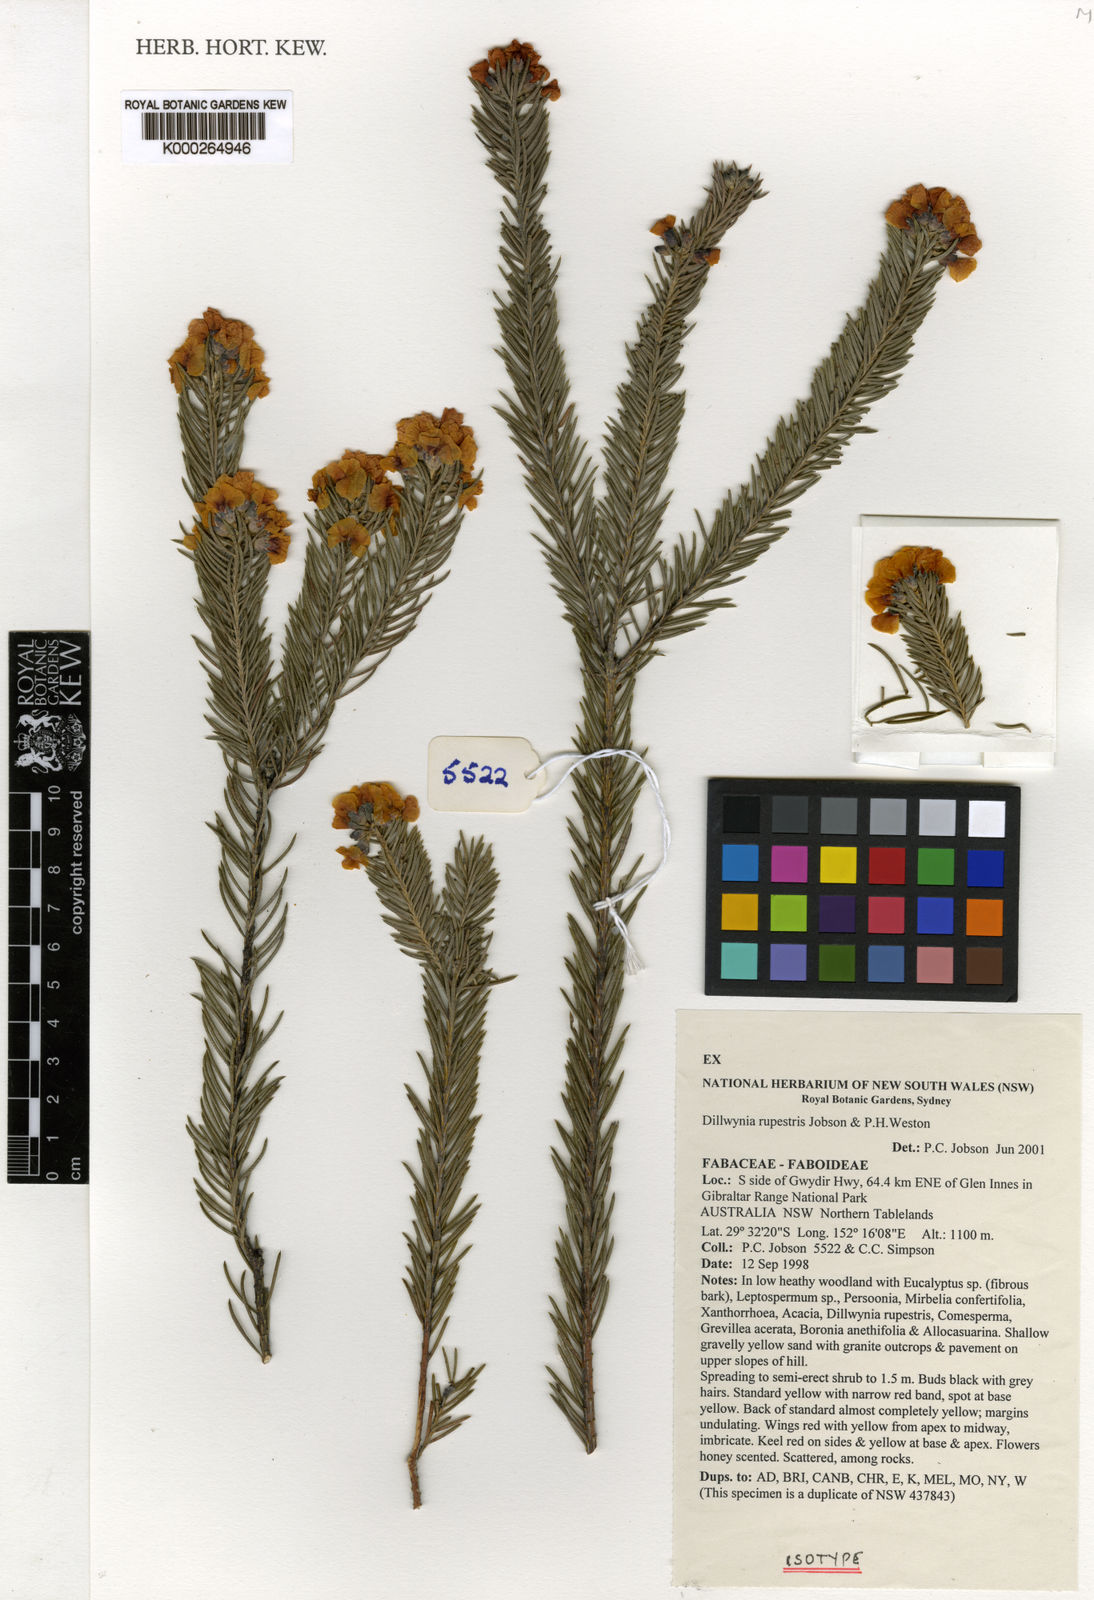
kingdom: Plantae
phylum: Tracheophyta
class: Magnoliopsida
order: Fabales
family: Fabaceae
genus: Dillwynia
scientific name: Dillwynia rupestris
